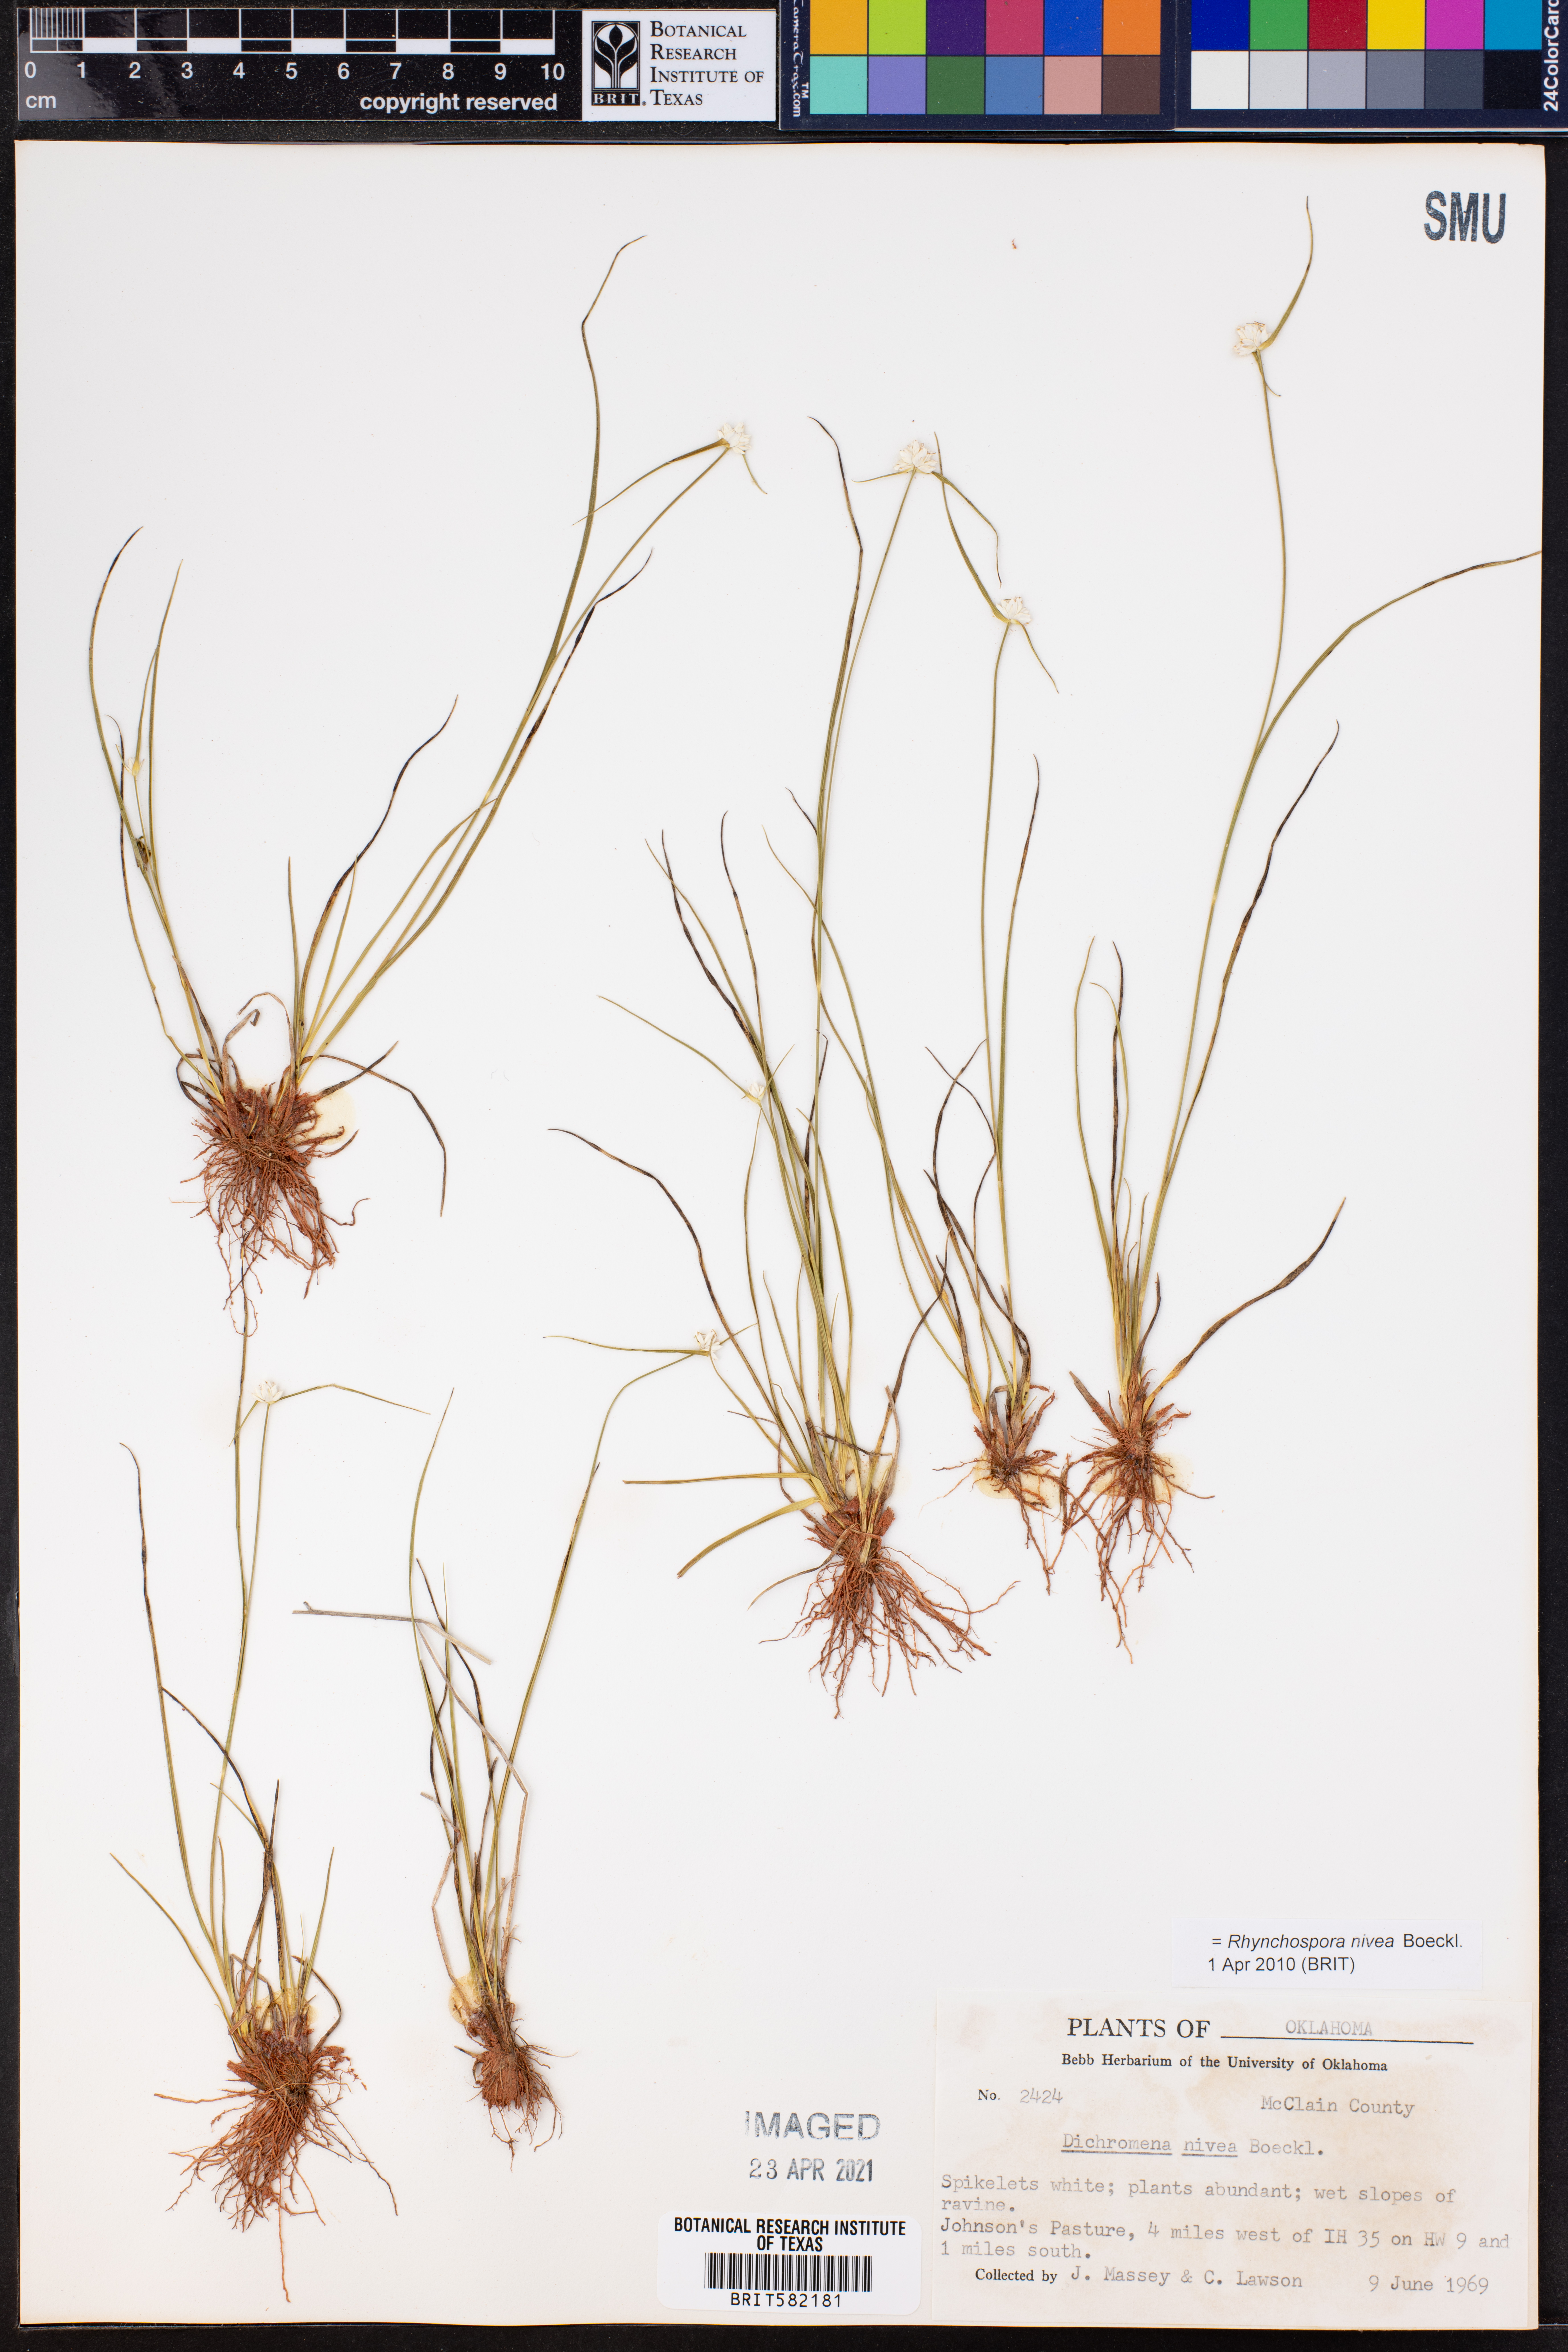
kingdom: Plantae
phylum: Tracheophyta
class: Liliopsida
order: Poales
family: Cyperaceae
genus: Rhynchospora
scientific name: Rhynchospora nivea
